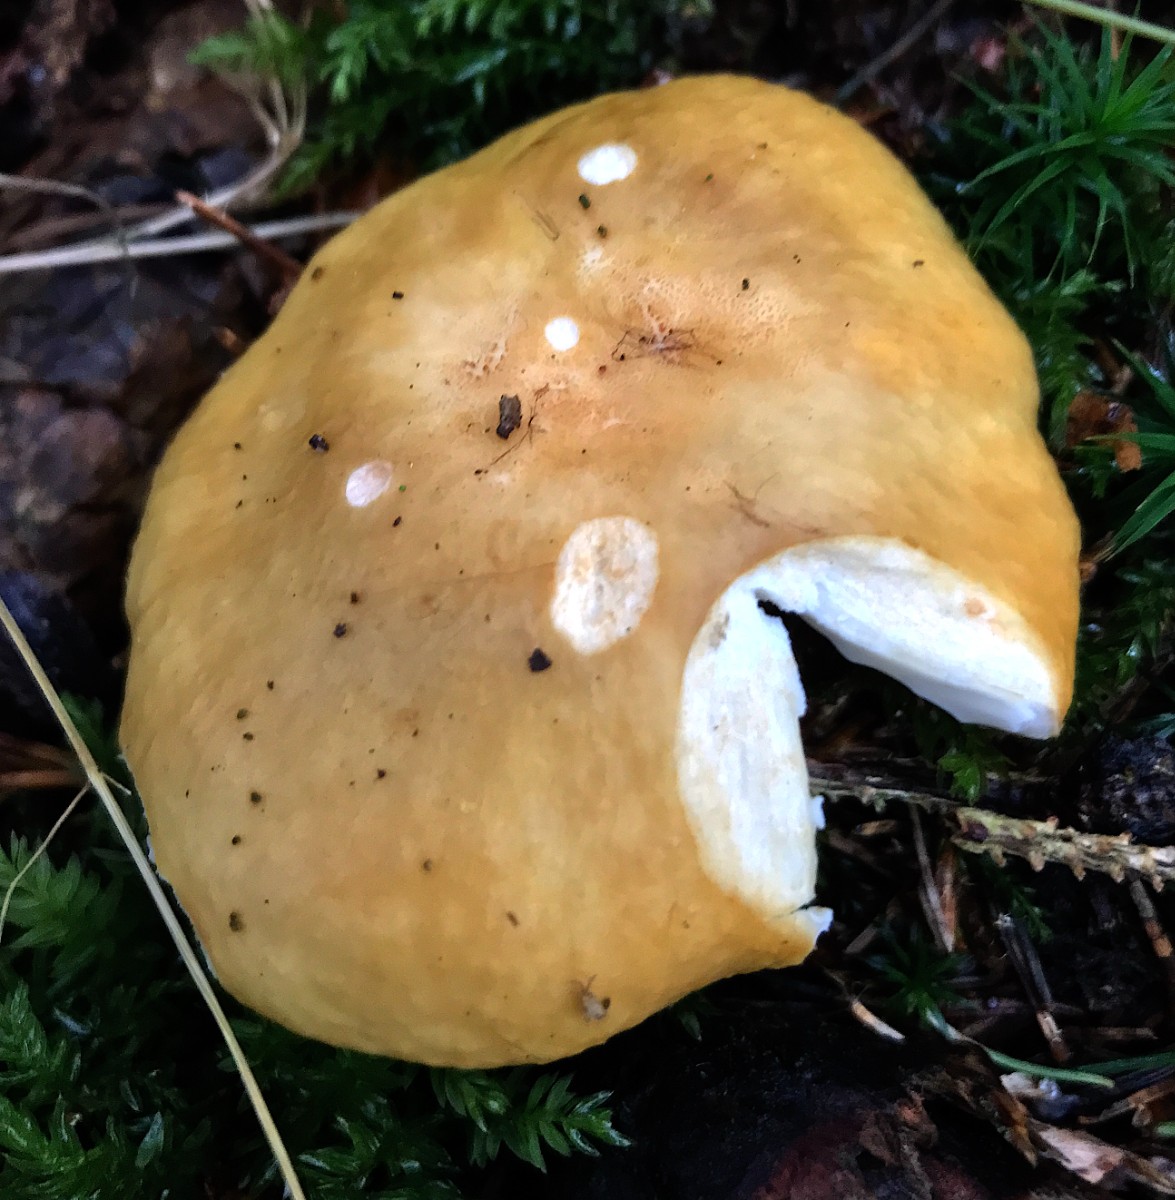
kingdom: Fungi
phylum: Basidiomycota
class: Agaricomycetes
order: Russulales
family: Russulaceae
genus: Russula
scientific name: Russula ochroleuca
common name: okkergul skørhat
